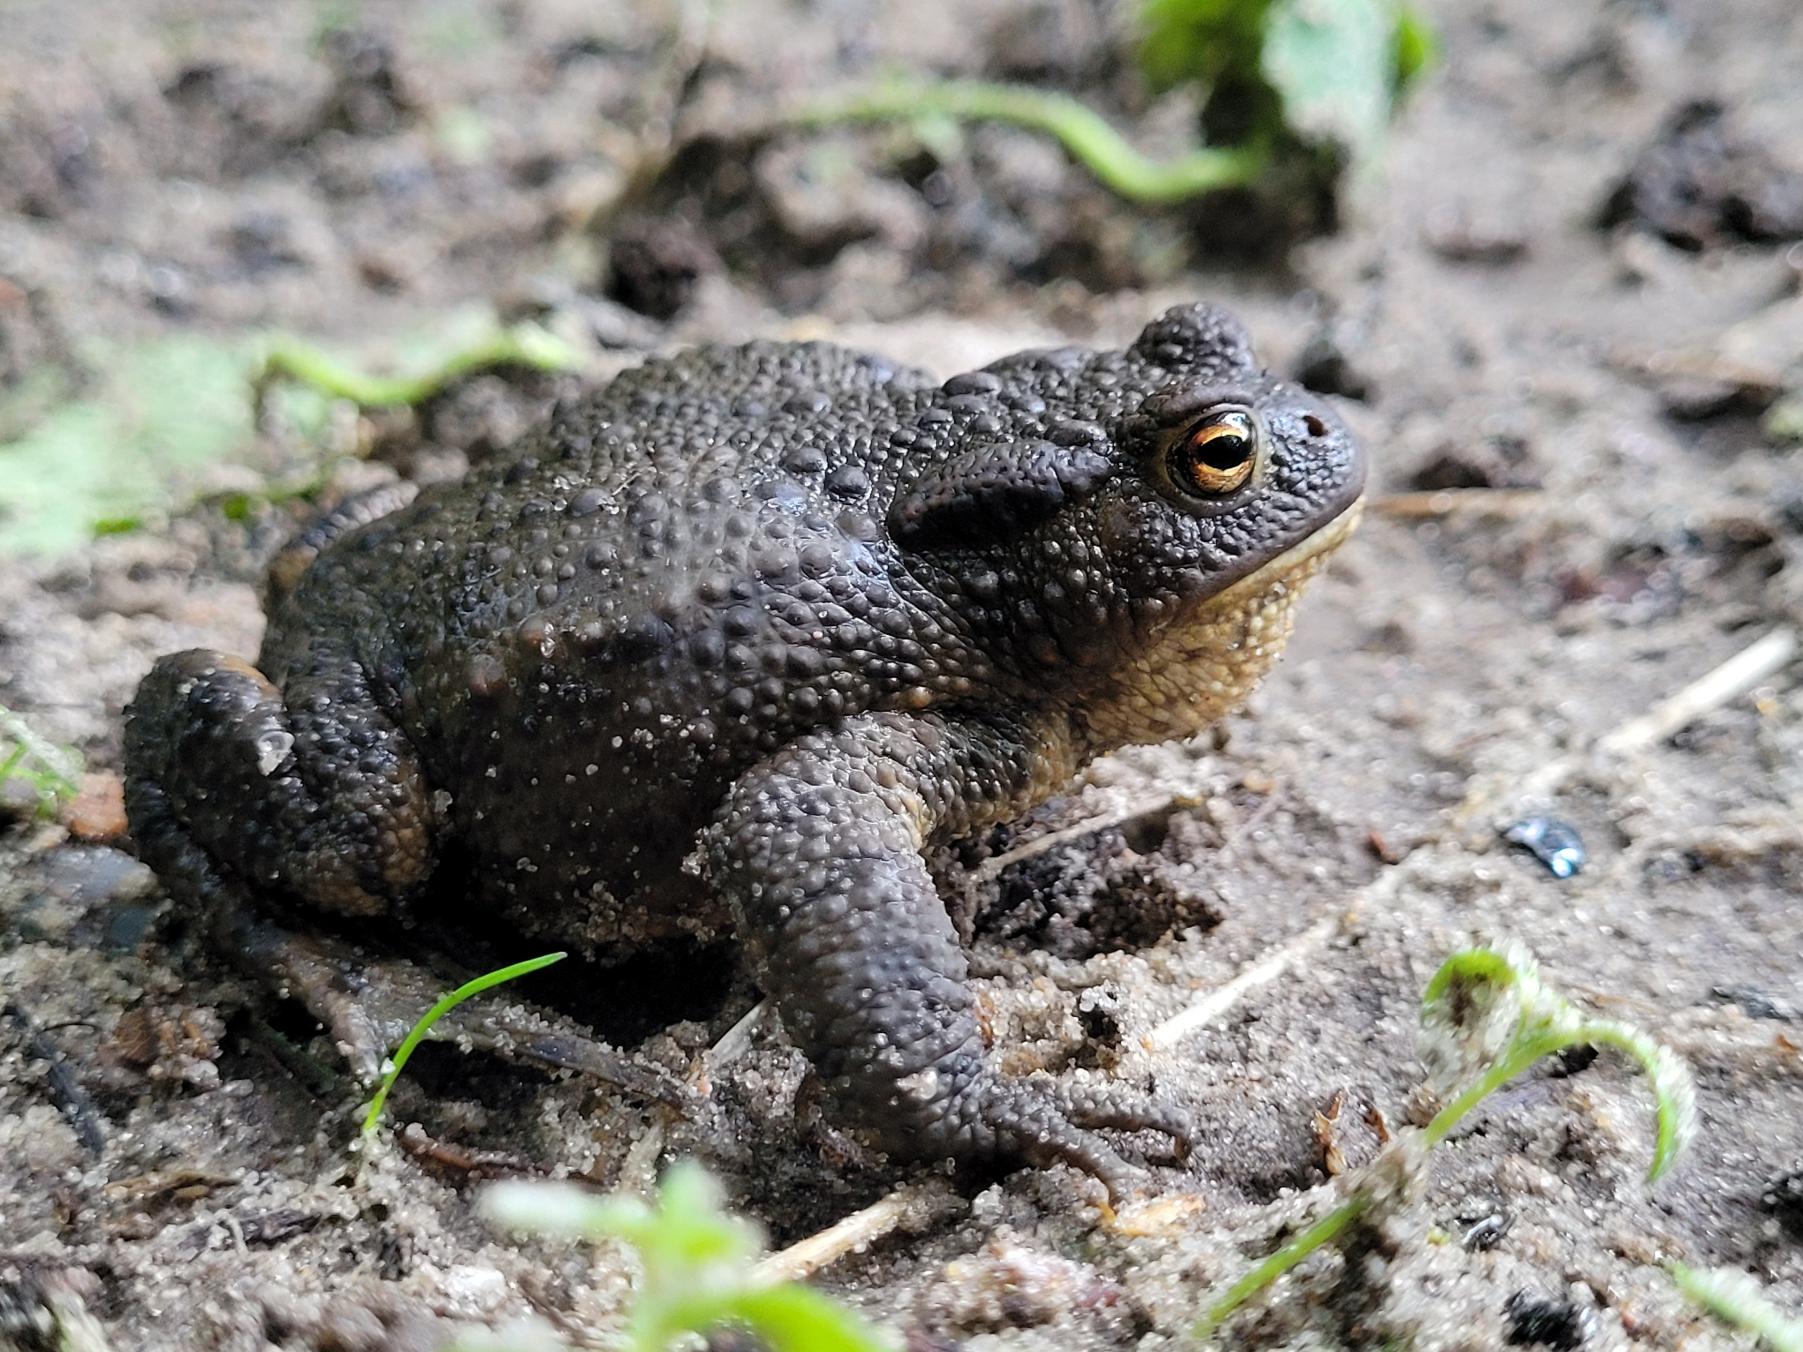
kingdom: Animalia
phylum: Chordata
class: Amphibia
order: Anura
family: Bufonidae
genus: Bufo
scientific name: Bufo bufo
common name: Skrubtudse
